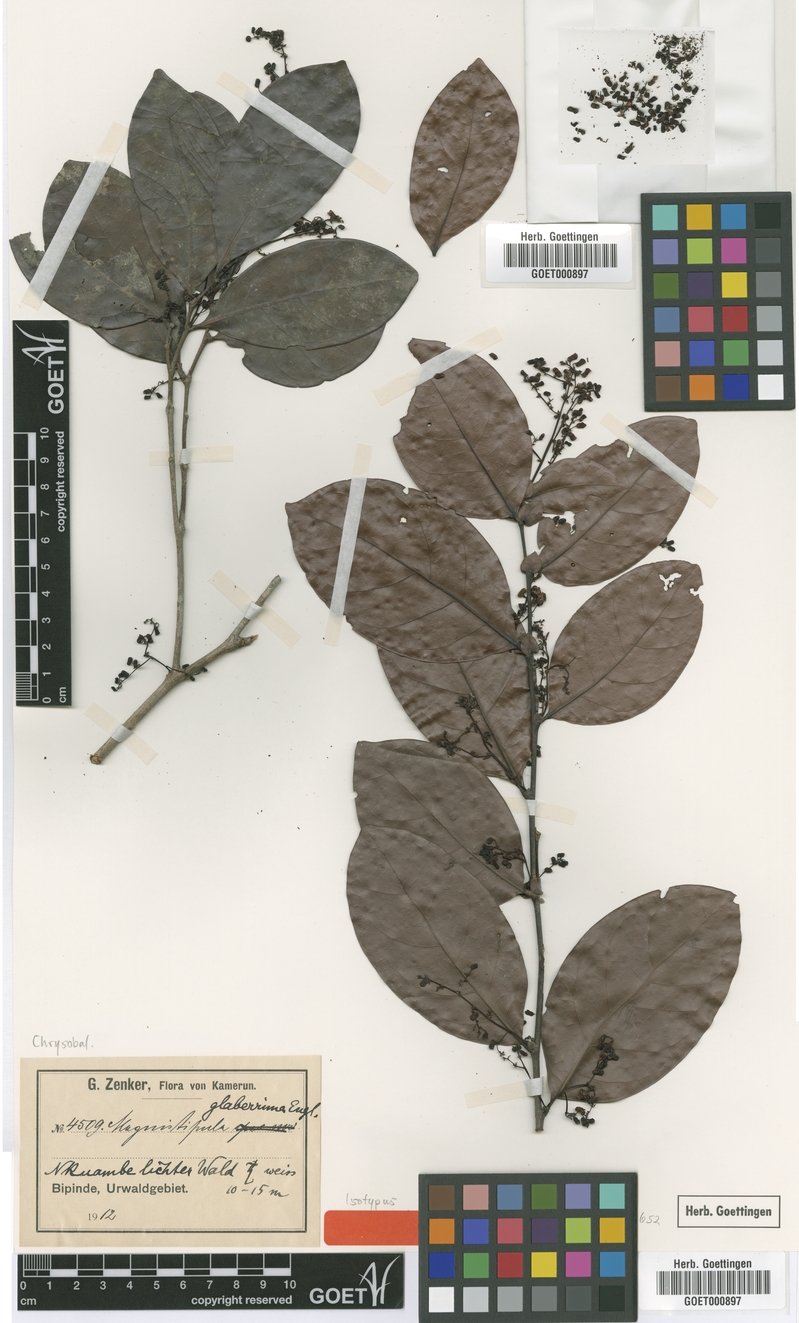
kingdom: Plantae
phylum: Tracheophyta
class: Magnoliopsida
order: Malpighiales
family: Chrysobalanaceae
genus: Magnistipula
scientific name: Magnistipula glaberrima
